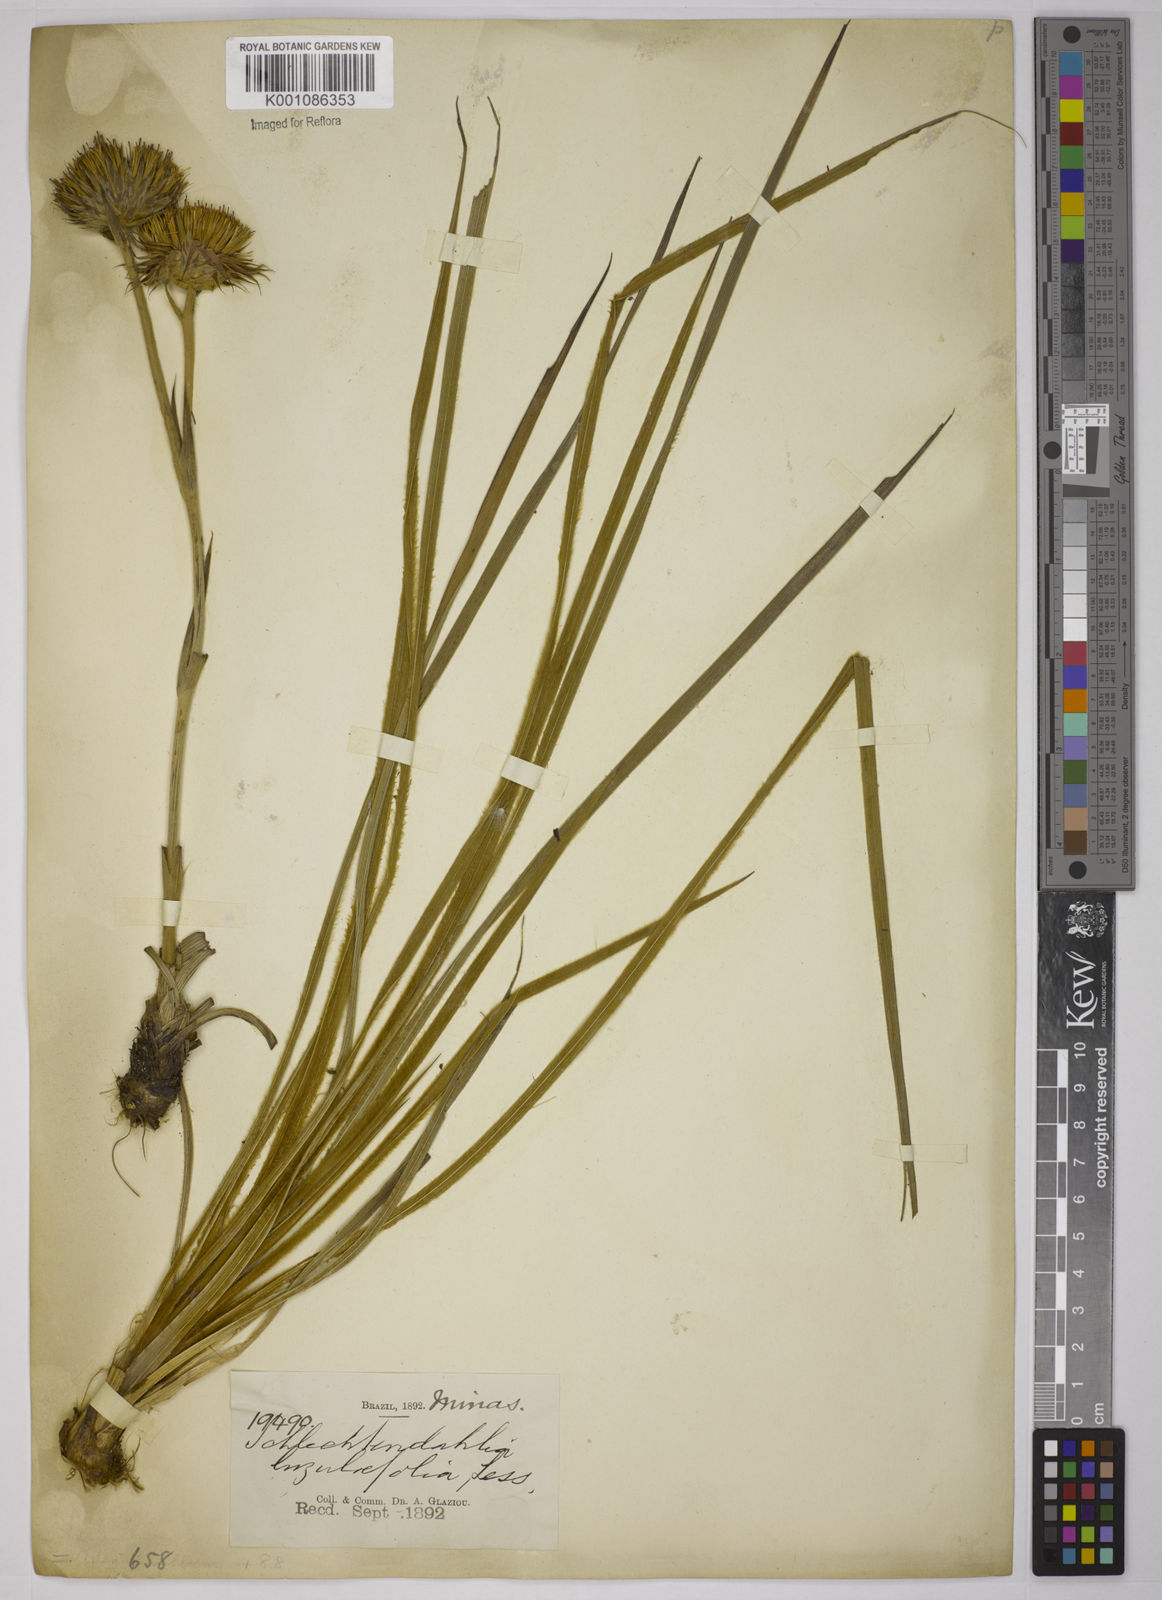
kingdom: Plantae
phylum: Tracheophyta
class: Magnoliopsida
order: Asterales
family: Asteraceae
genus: Schlechtendalia
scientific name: Schlechtendalia luzulifolia
